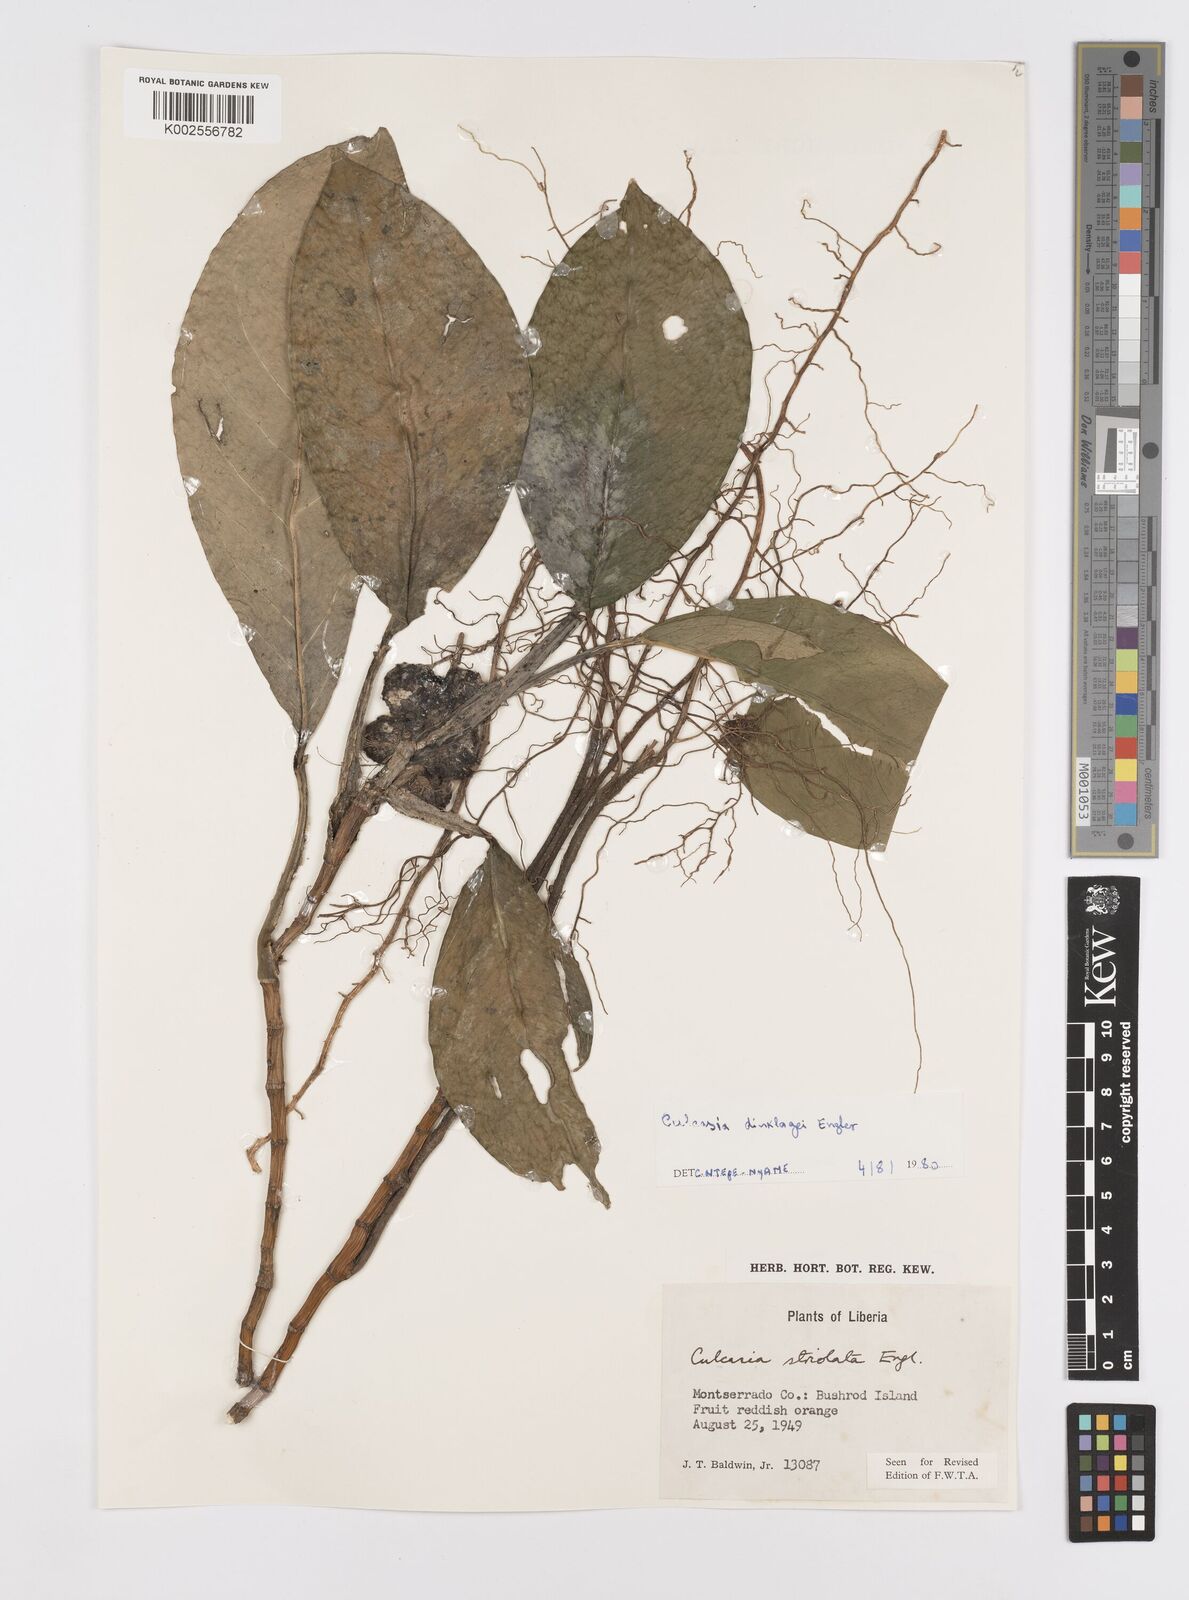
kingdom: Plantae
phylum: Tracheophyta
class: Liliopsida
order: Alismatales
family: Araceae
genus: Culcasia
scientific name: Culcasia dinklagei
